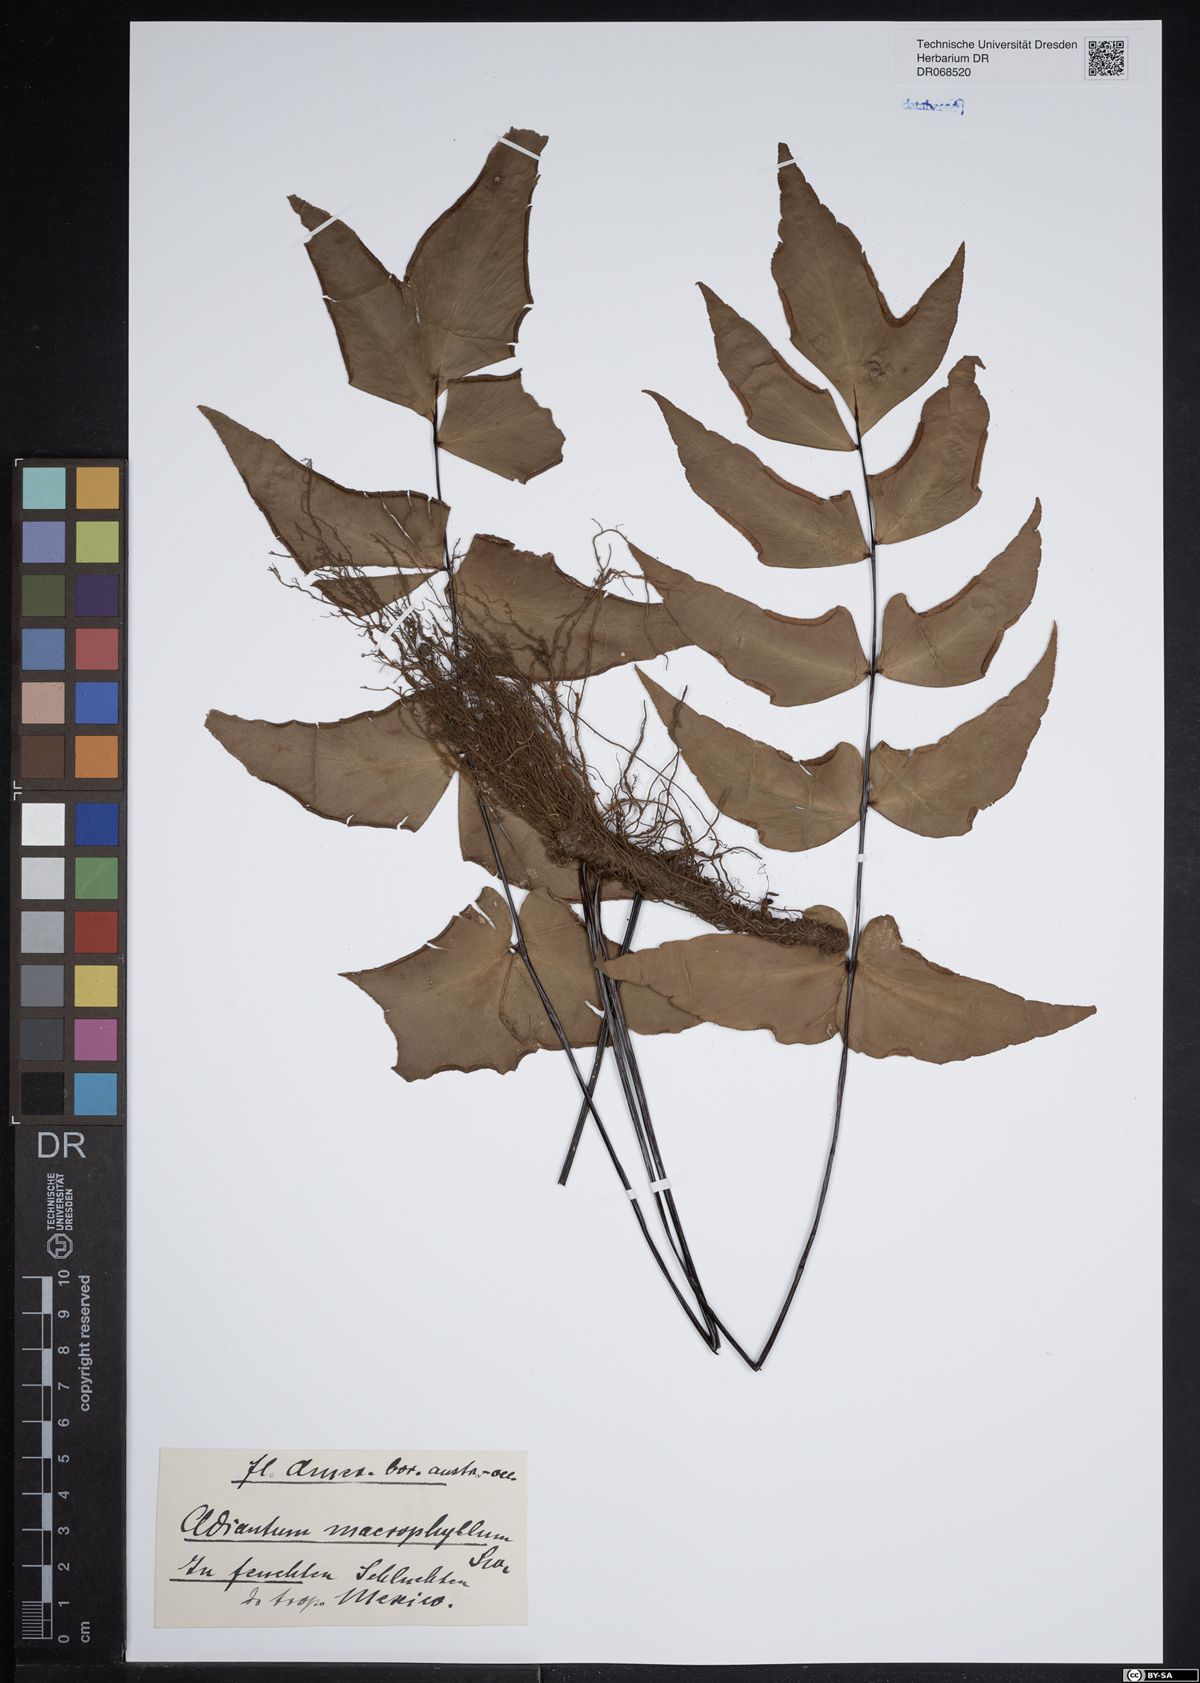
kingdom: Plantae
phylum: Tracheophyta
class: Polypodiopsida
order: Polypodiales
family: Pteridaceae
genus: Adiantum
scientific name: Adiantum macrophyllum
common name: Largeleaf maidenhair
